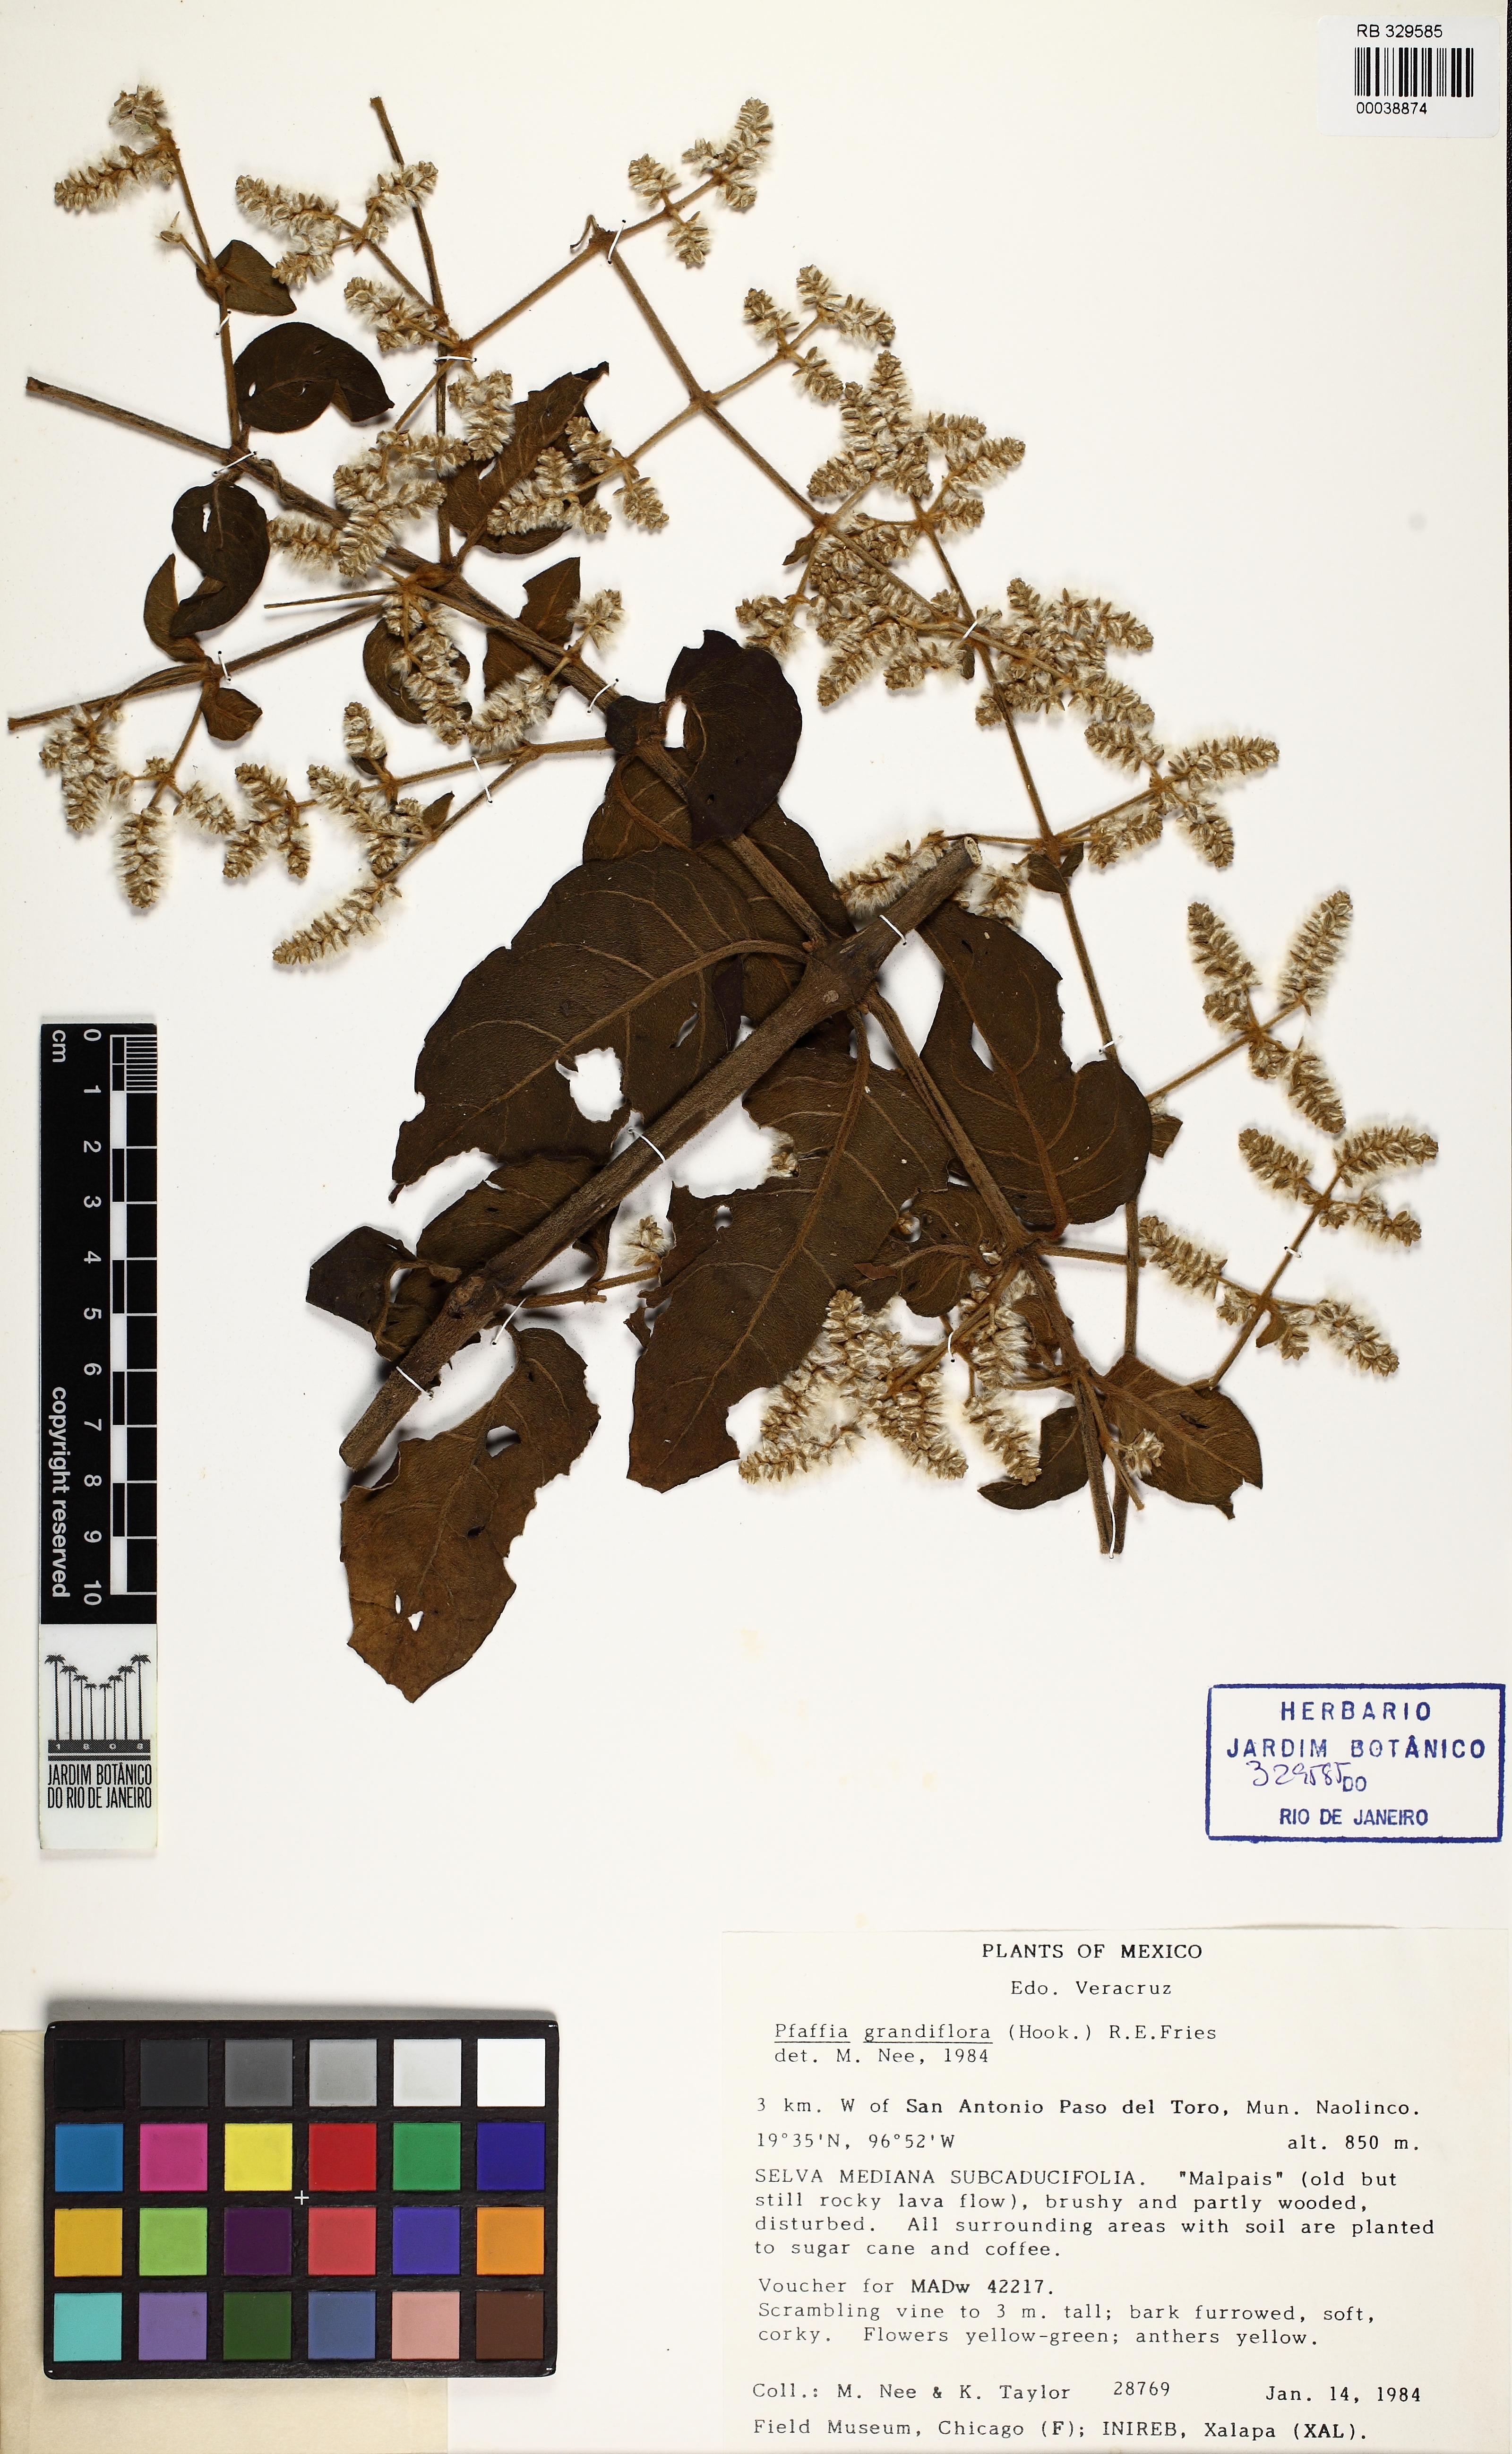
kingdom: Plantae
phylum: Tracheophyta
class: Magnoliopsida
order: Caryophyllales
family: Amaranthaceae
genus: Hebanthe
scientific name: Hebanthe grandiflora
